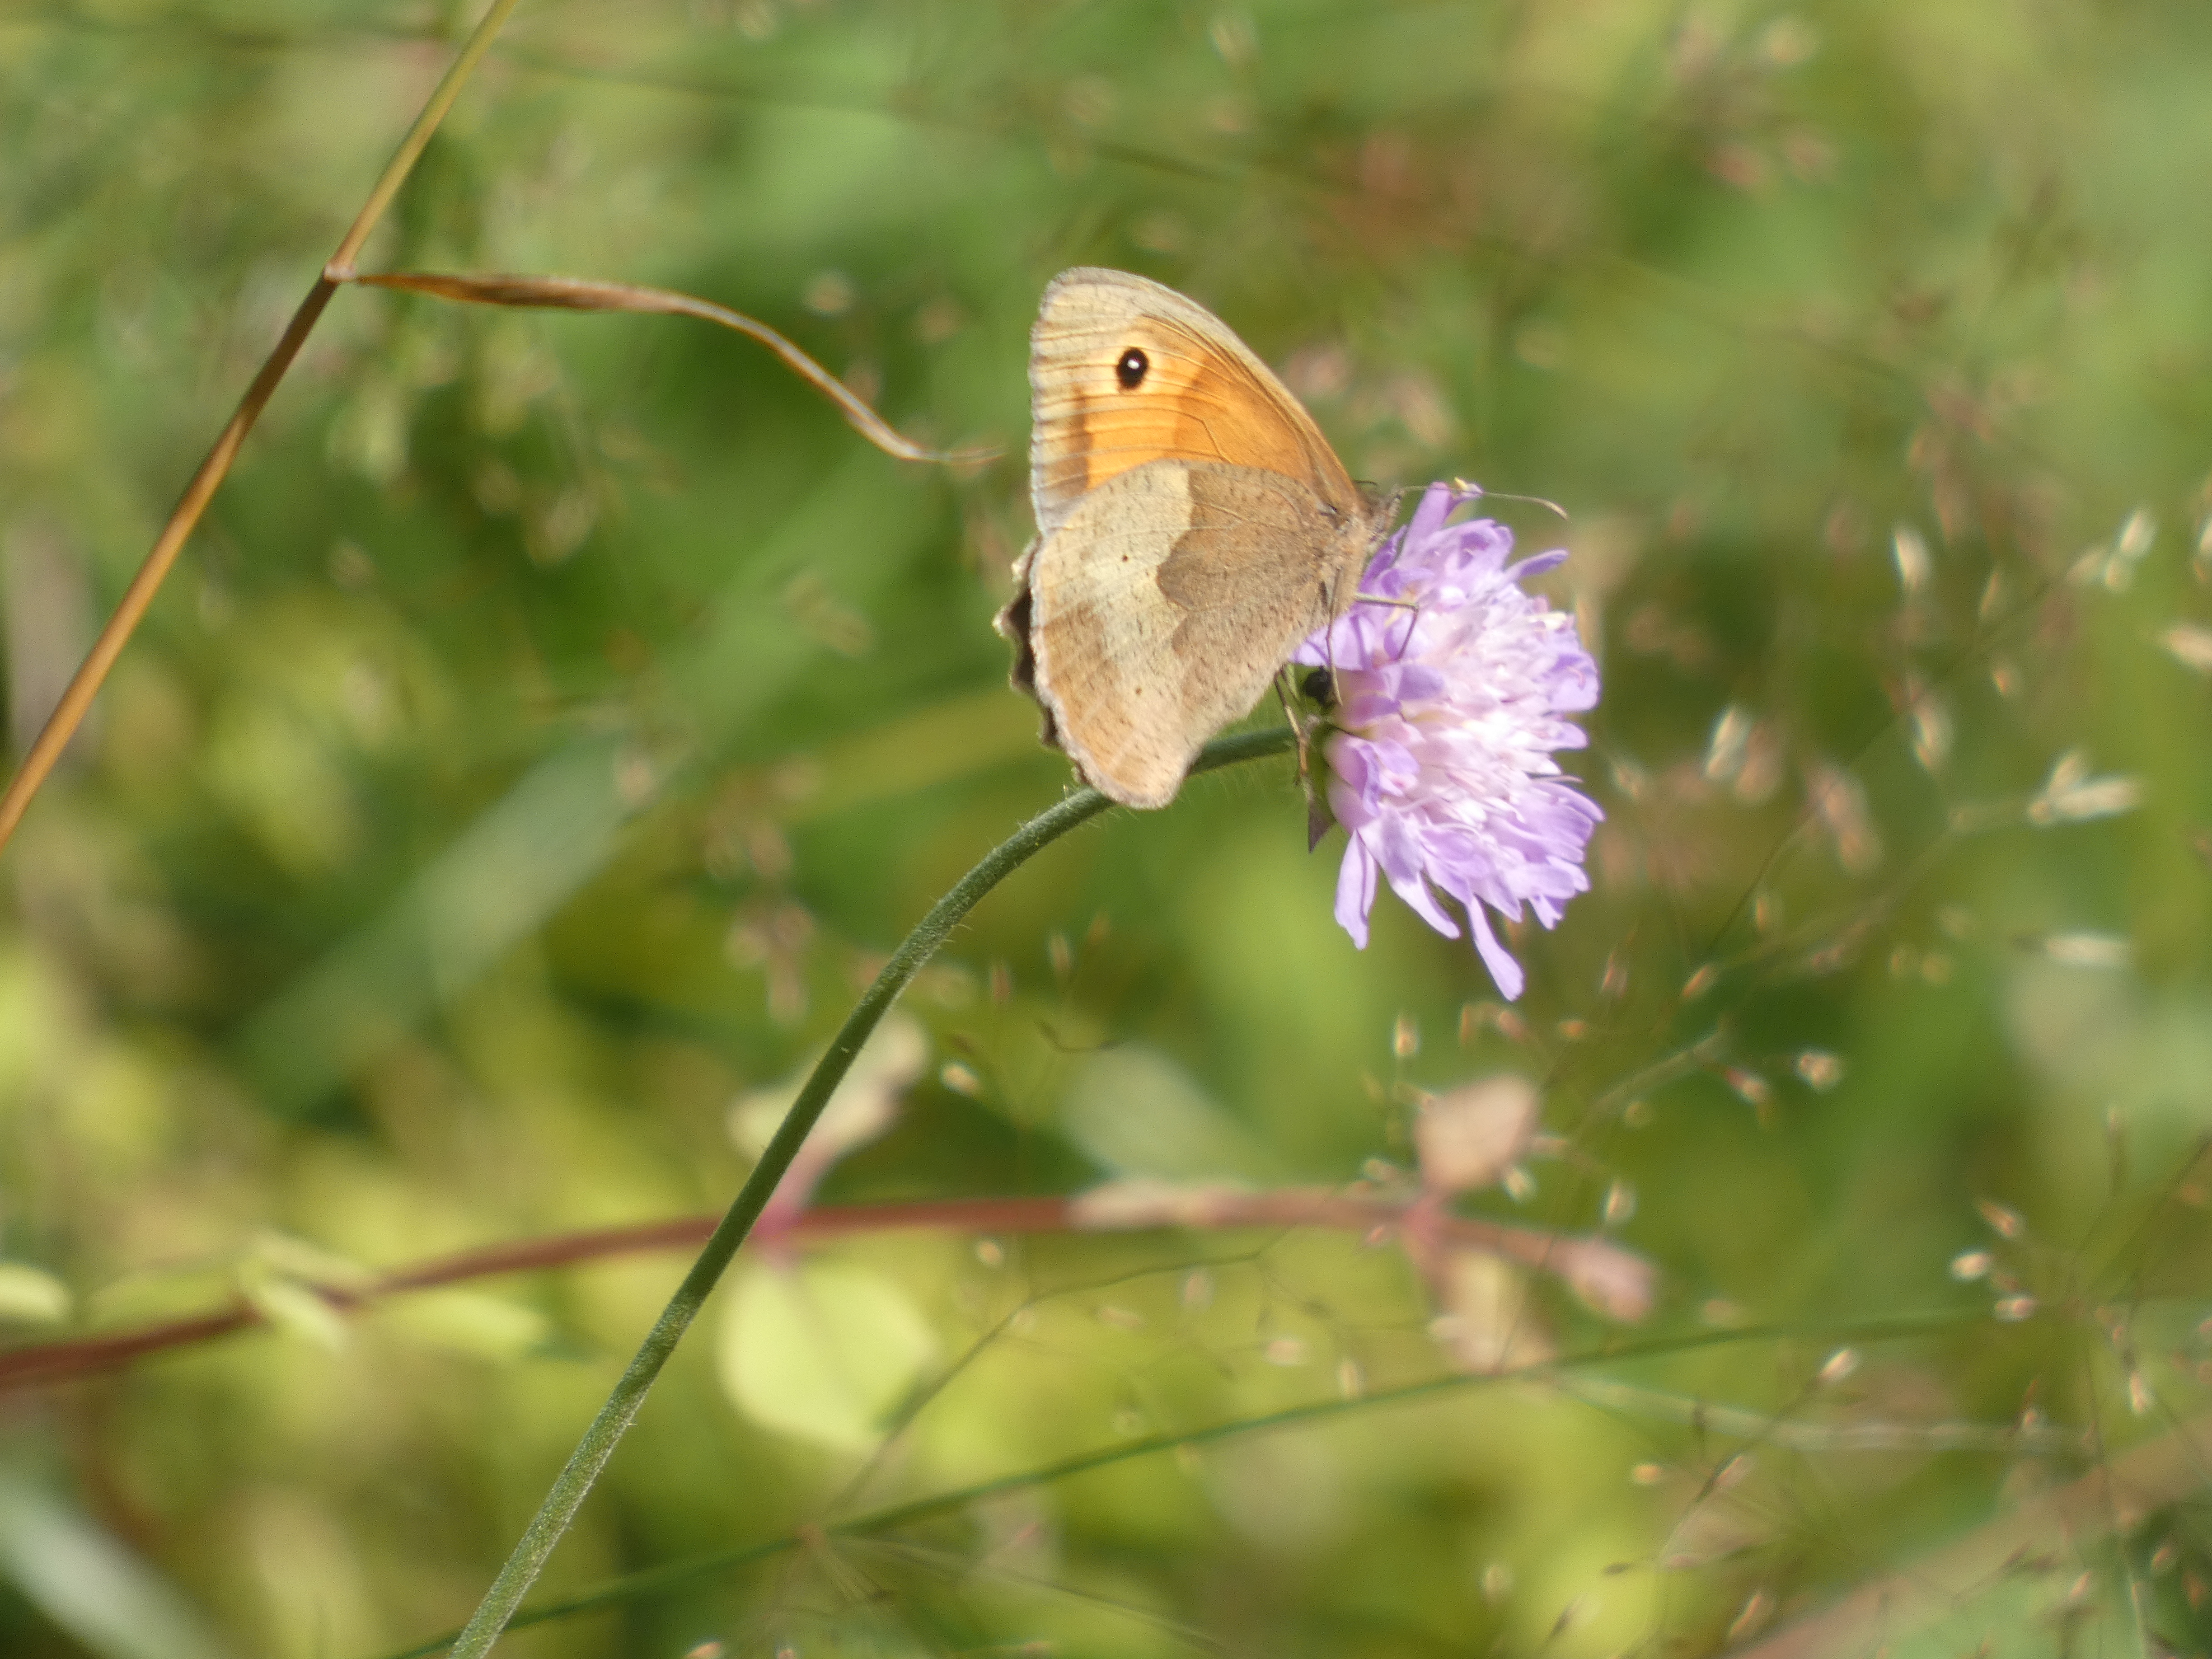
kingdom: Animalia
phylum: Arthropoda
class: Insecta
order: Lepidoptera
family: Nymphalidae
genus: Maniola
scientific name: Maniola jurtina
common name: Græsrandøje
